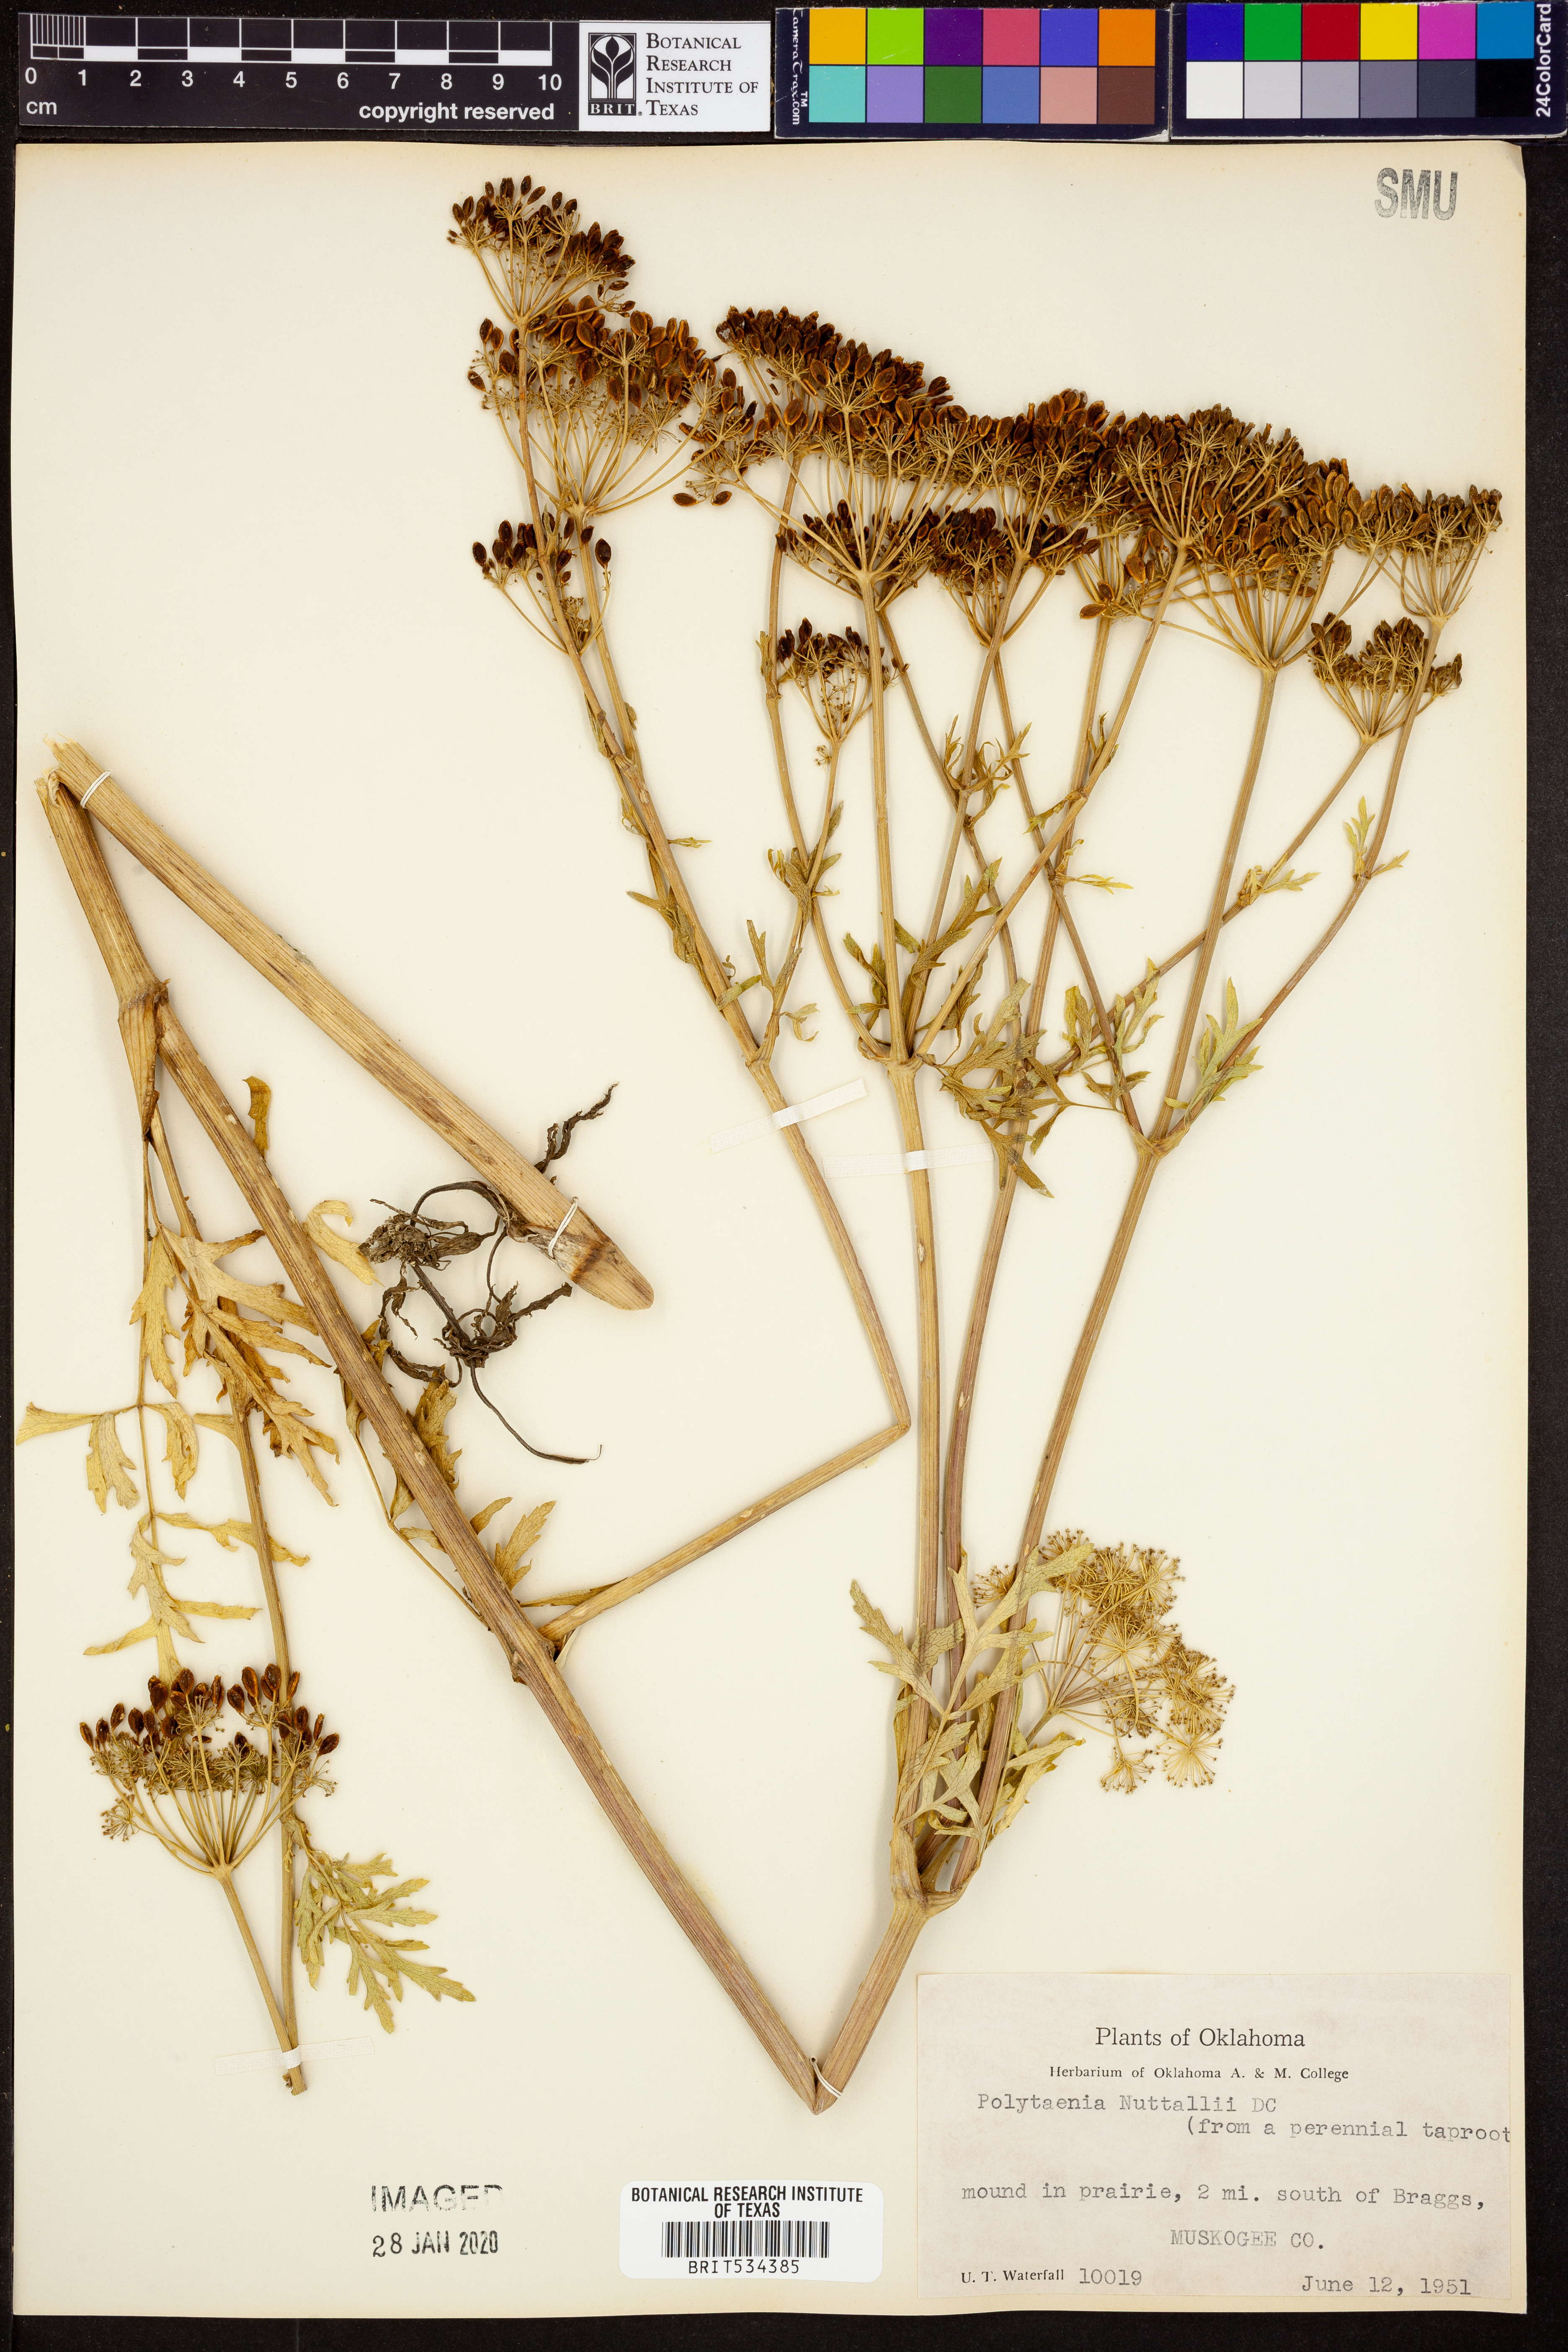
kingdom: Plantae
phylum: Tracheophyta
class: Magnoliopsida
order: Apiales
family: Apiaceae
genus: Polytaenia
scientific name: Polytaenia nuttallii
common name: Prairie-parsley
